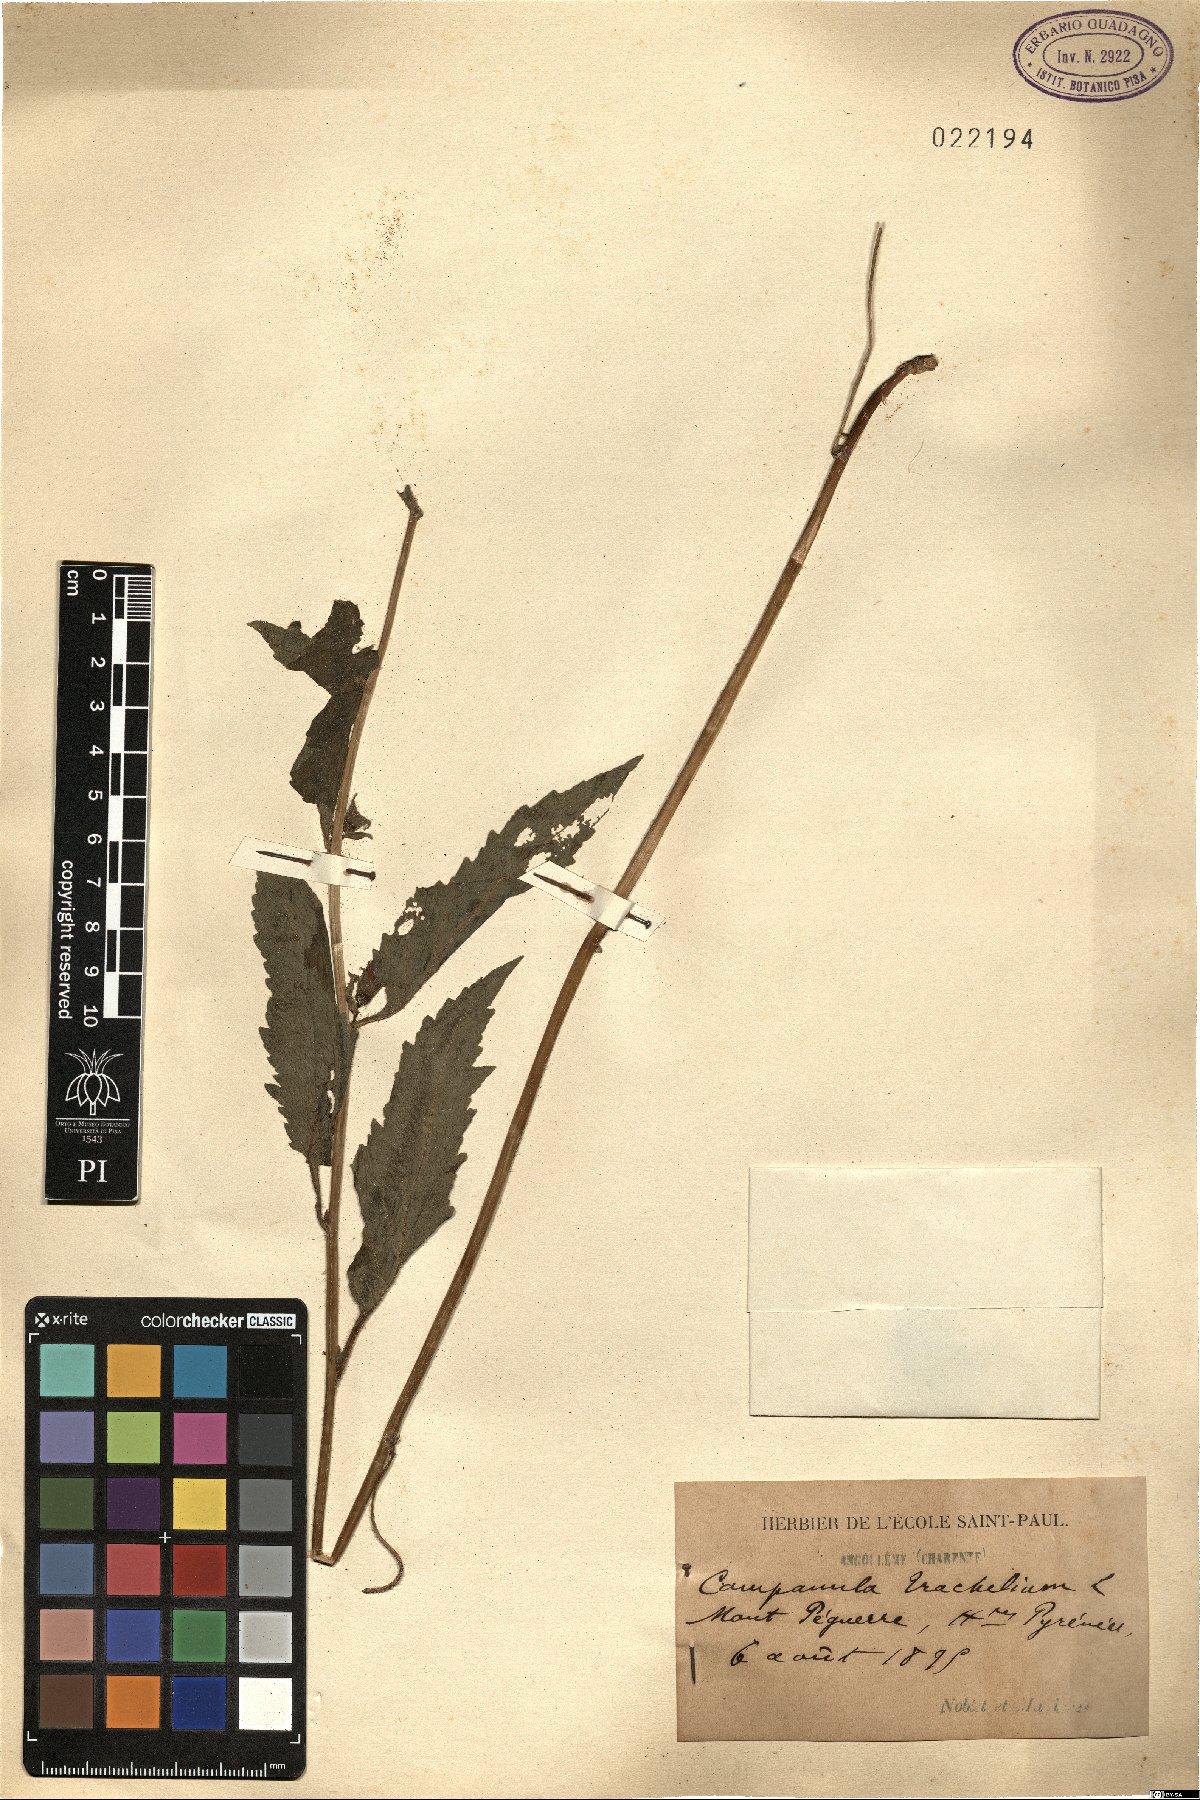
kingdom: Plantae
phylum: Tracheophyta
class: Magnoliopsida
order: Asterales
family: Campanulaceae
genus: Campanula
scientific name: Campanula trachelium
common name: Nettle-leaved bellflower
